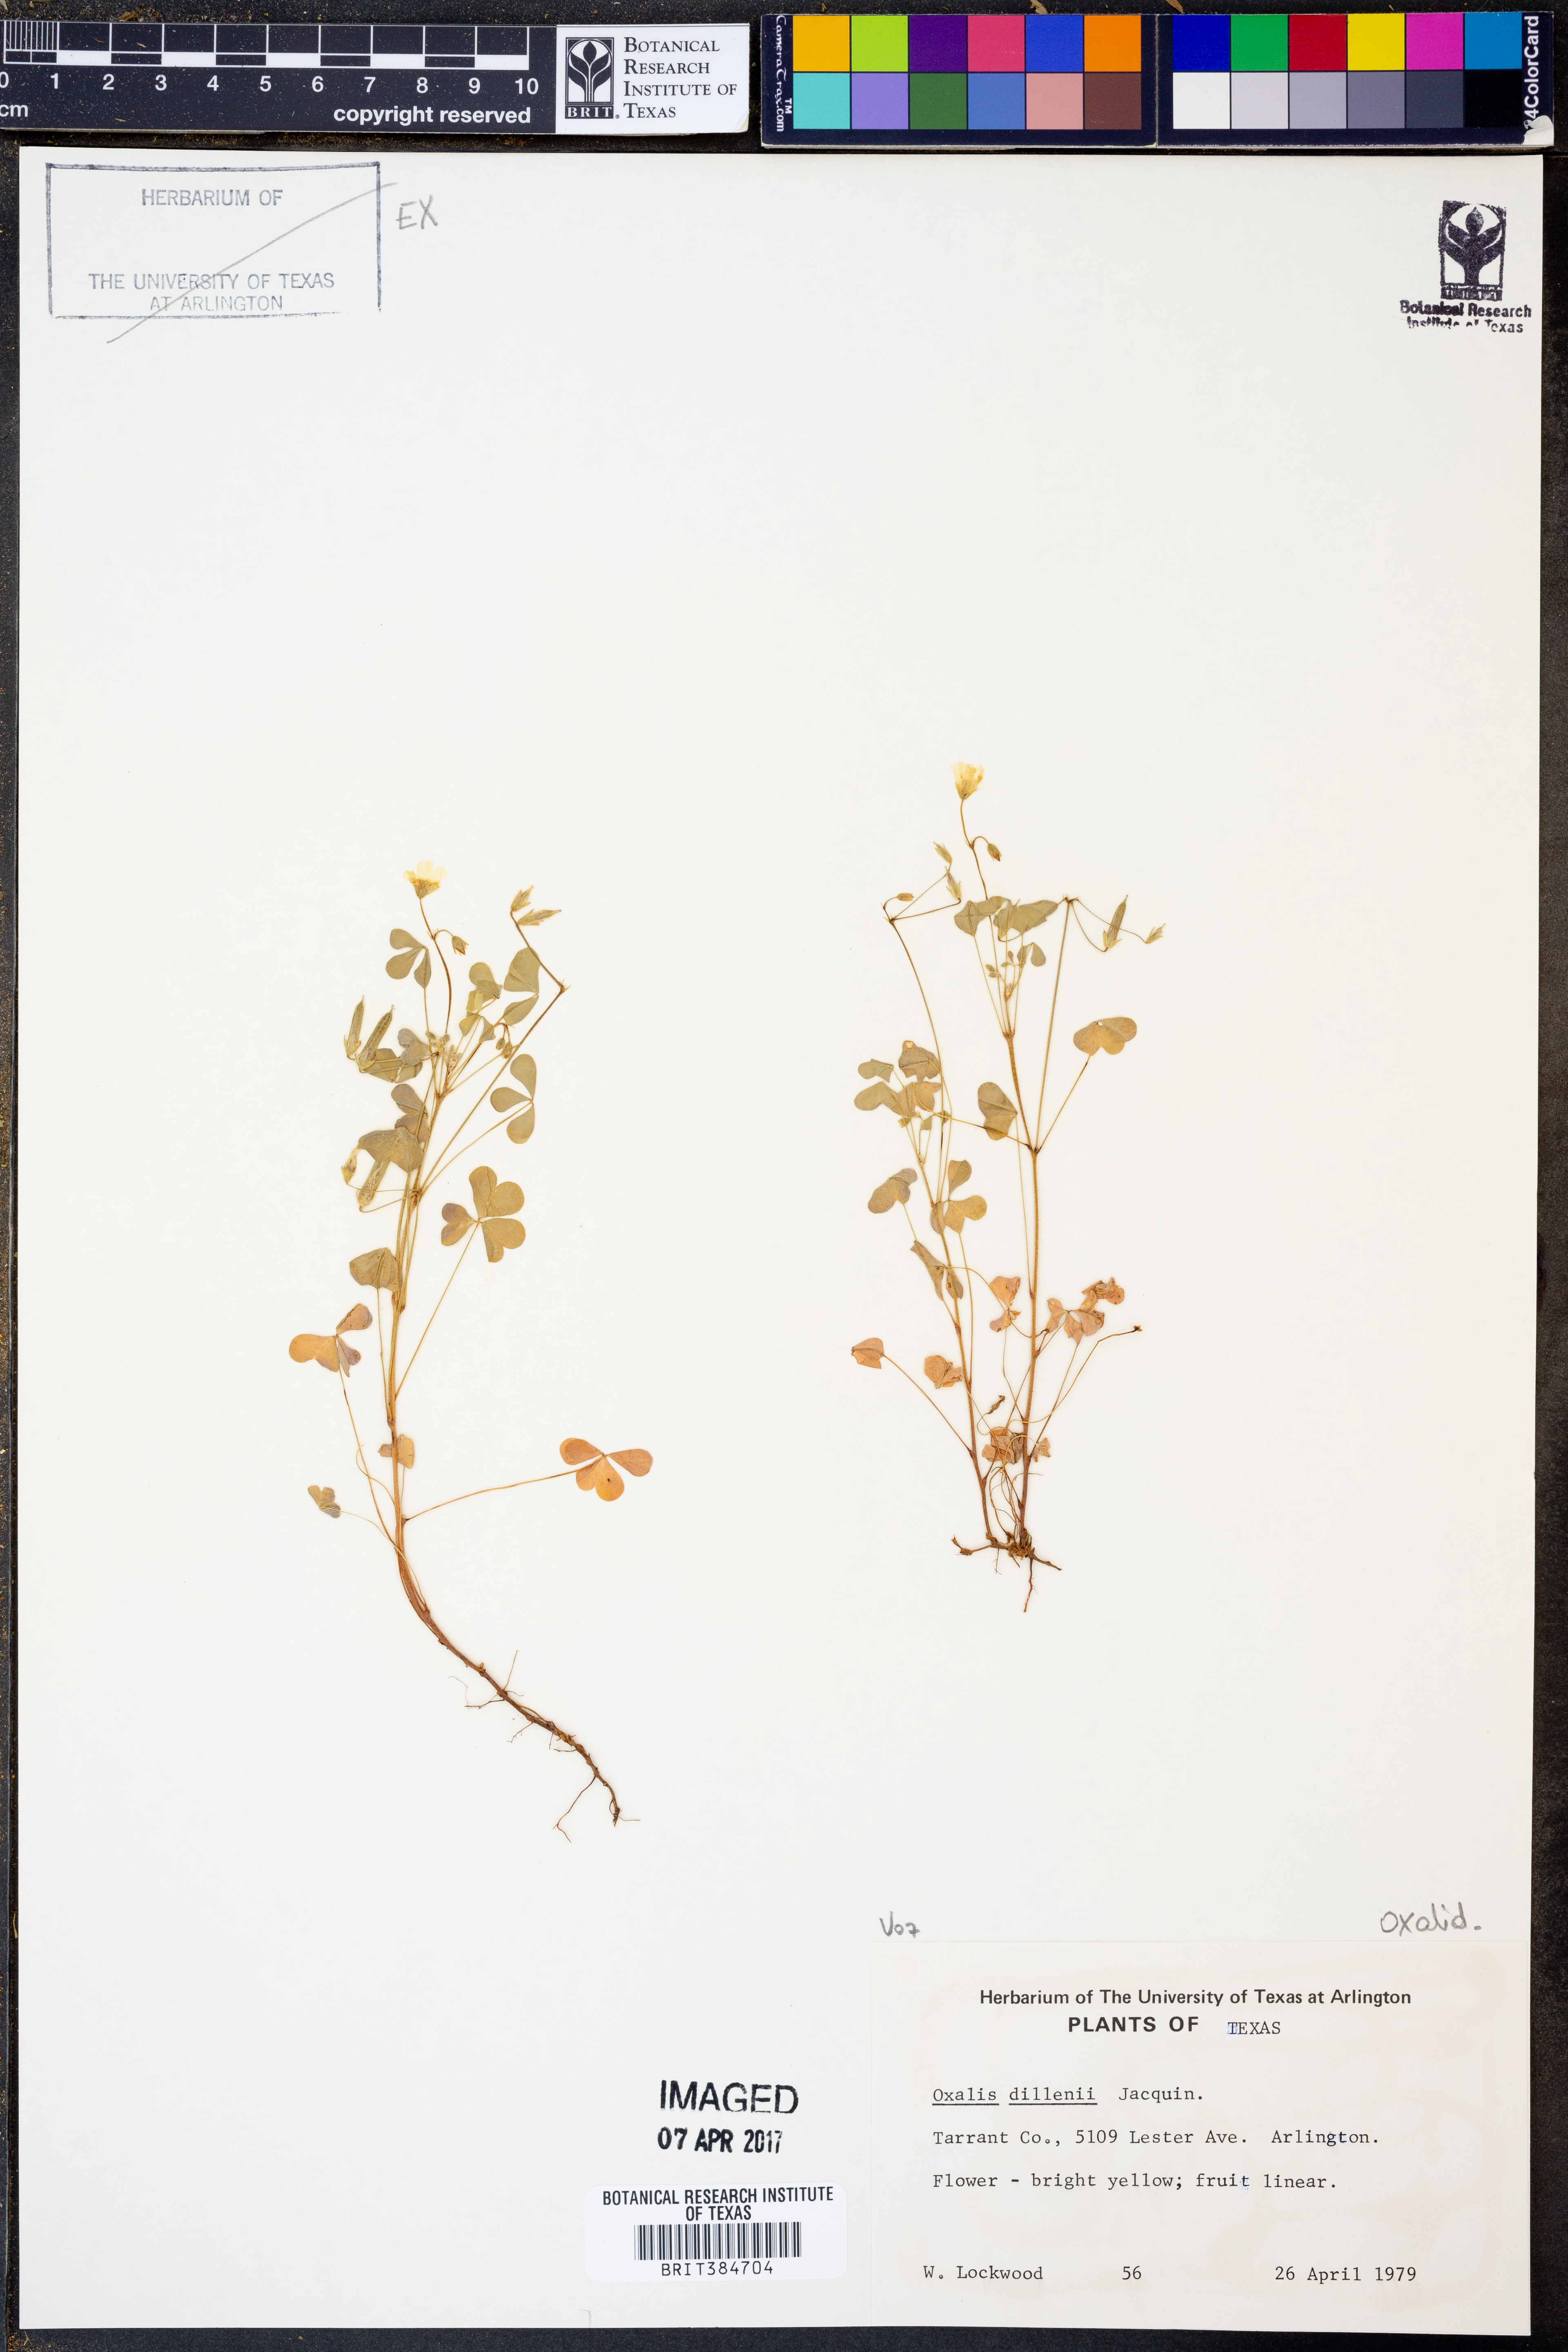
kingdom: Plantae
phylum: Tracheophyta
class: Magnoliopsida
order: Oxalidales
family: Oxalidaceae
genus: Oxalis
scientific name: Oxalis dillenii
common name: Sussex yellow-sorrel
